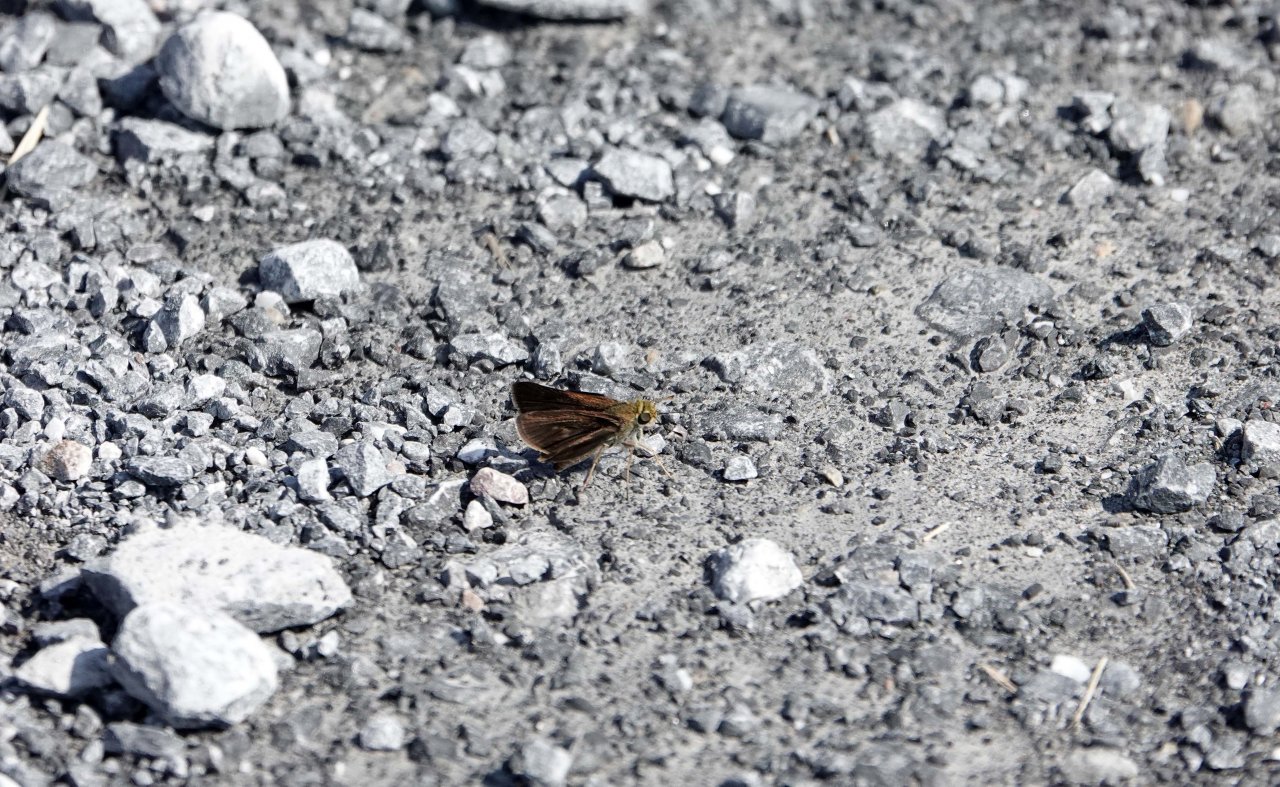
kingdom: Animalia
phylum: Arthropoda
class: Insecta
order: Lepidoptera
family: Hesperiidae
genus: Euphyes
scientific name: Euphyes vestris
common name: Dun Skipper
